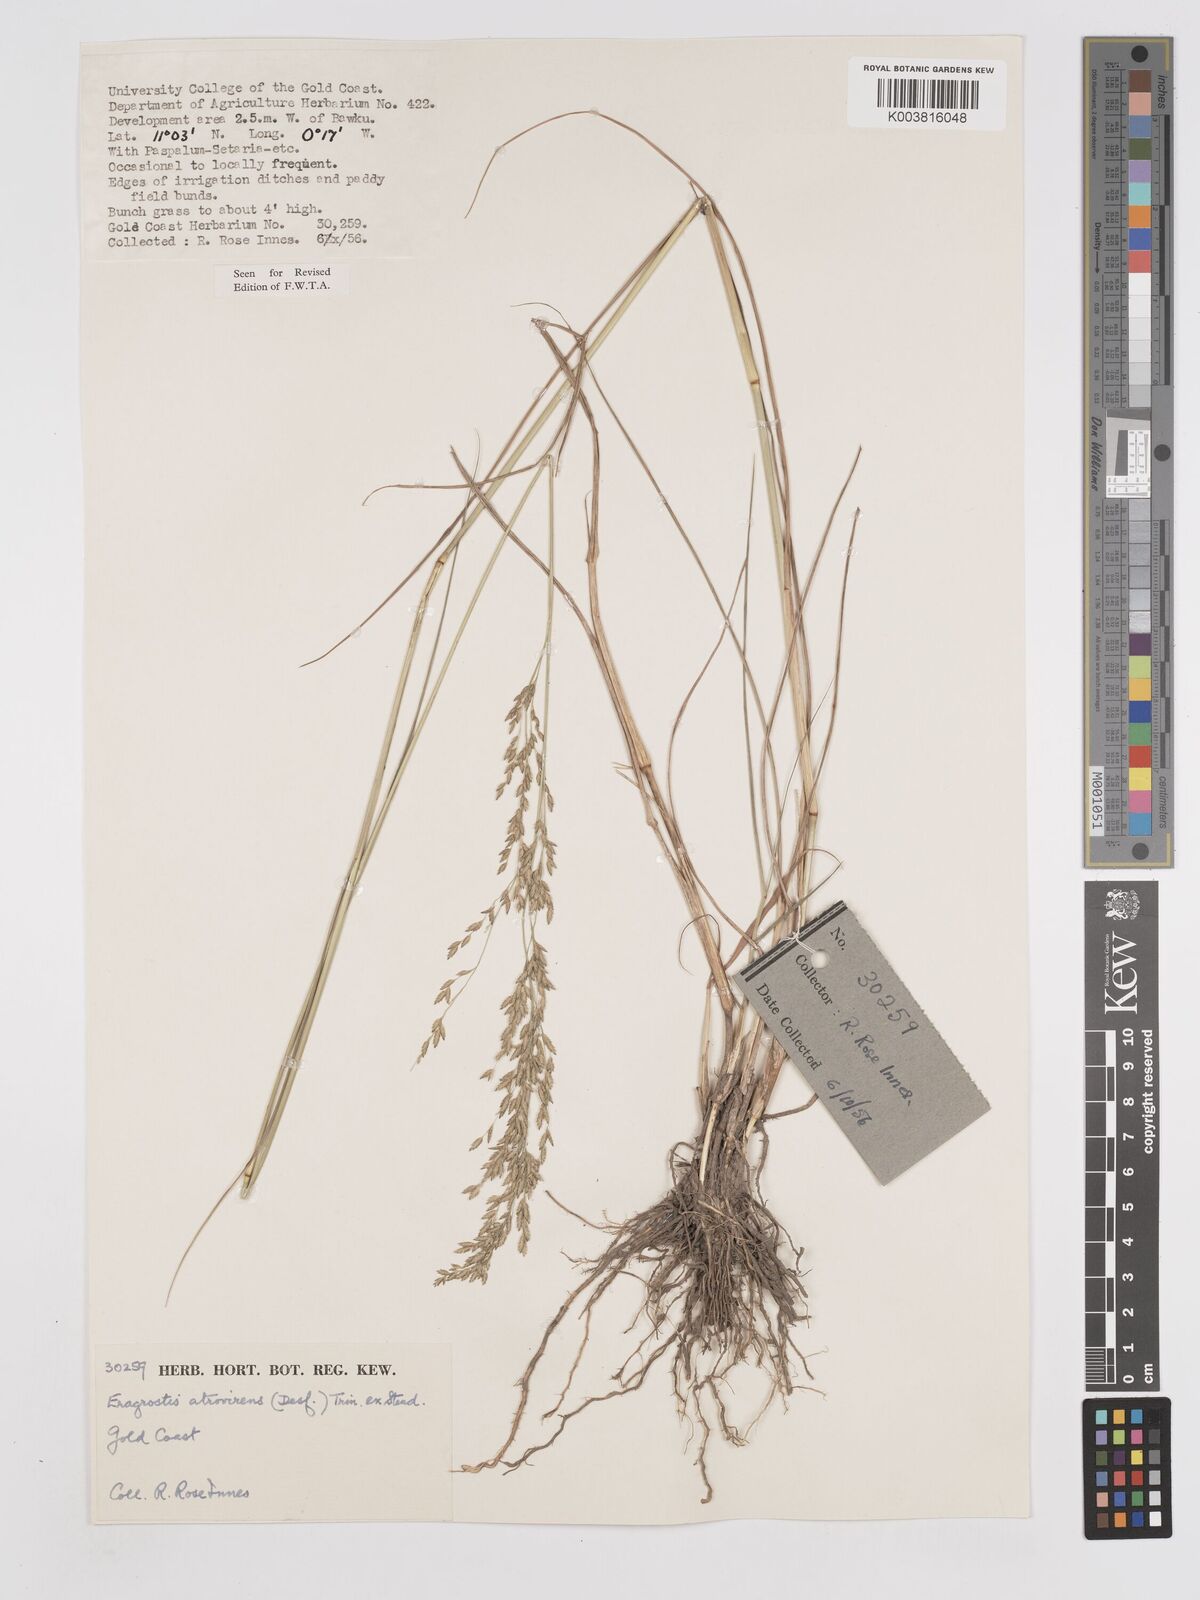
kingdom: Plantae
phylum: Tracheophyta
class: Liliopsida
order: Poales
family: Poaceae
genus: Eragrostis
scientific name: Eragrostis atrovirens
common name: Thalia lovegrass
